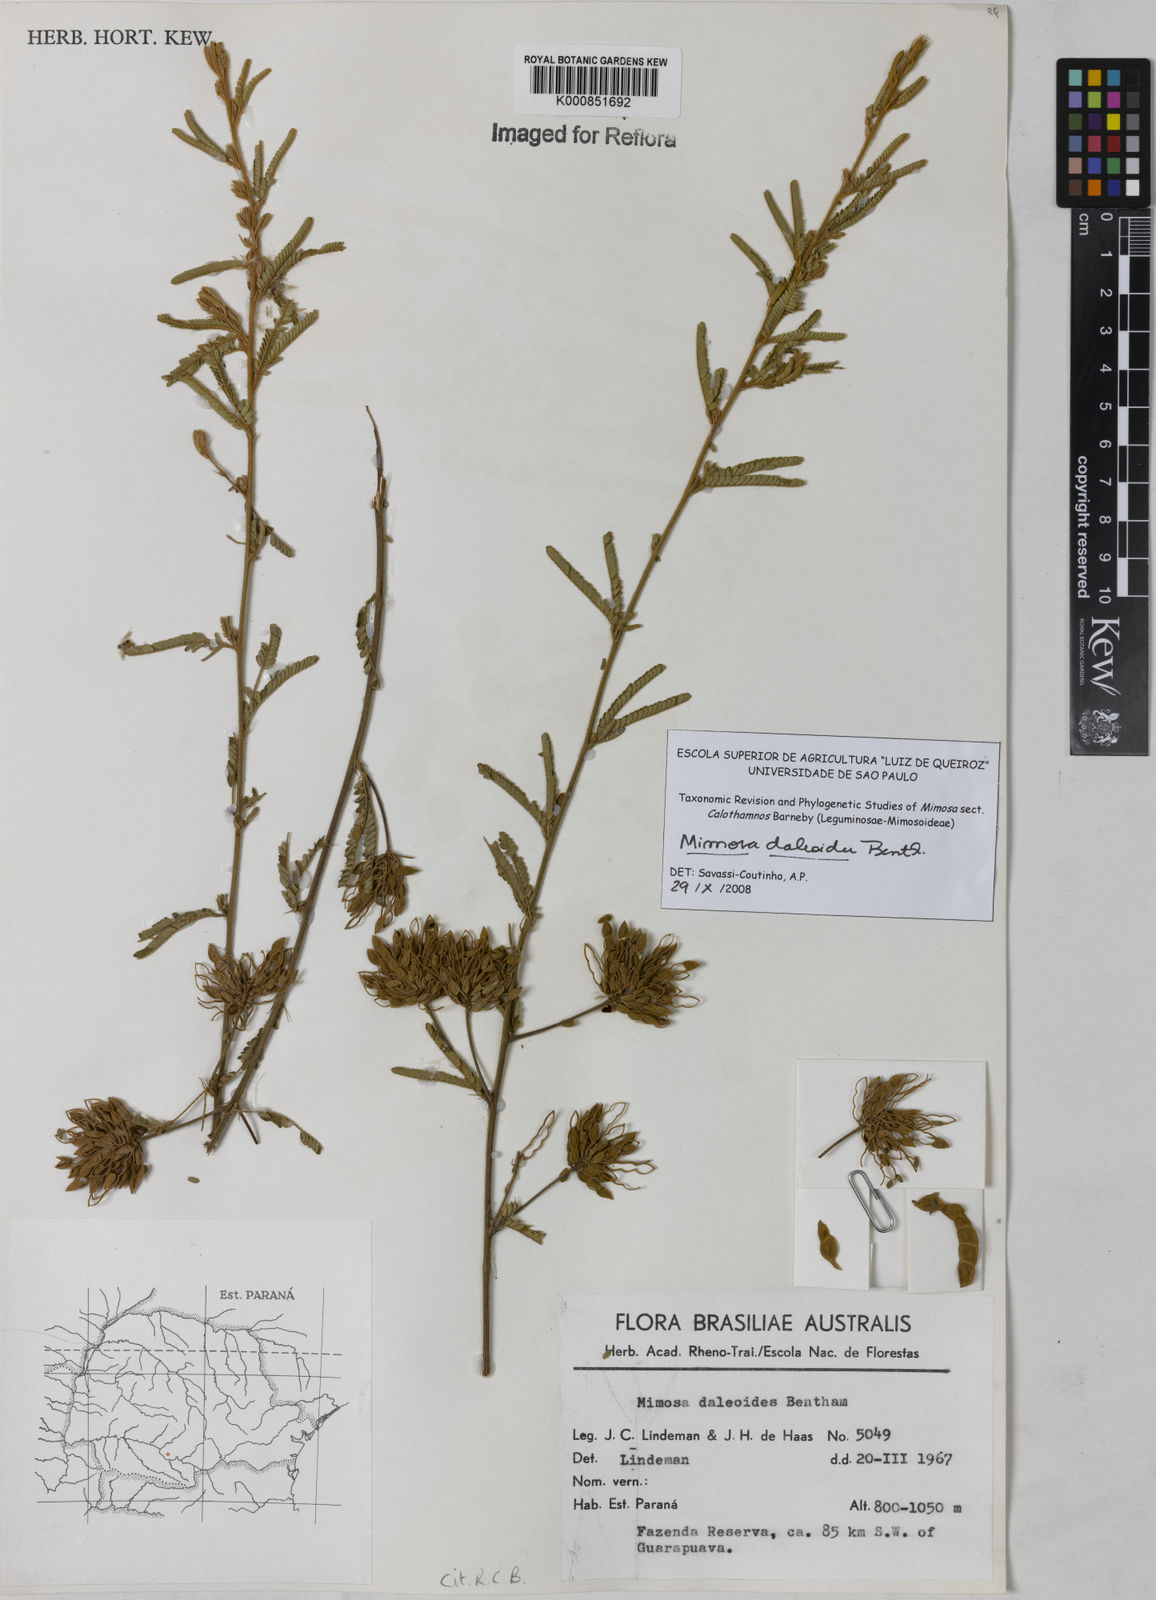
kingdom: Plantae
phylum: Tracheophyta
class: Magnoliopsida
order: Fabales
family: Fabaceae
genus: Mimosa
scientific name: Mimosa daleoides
